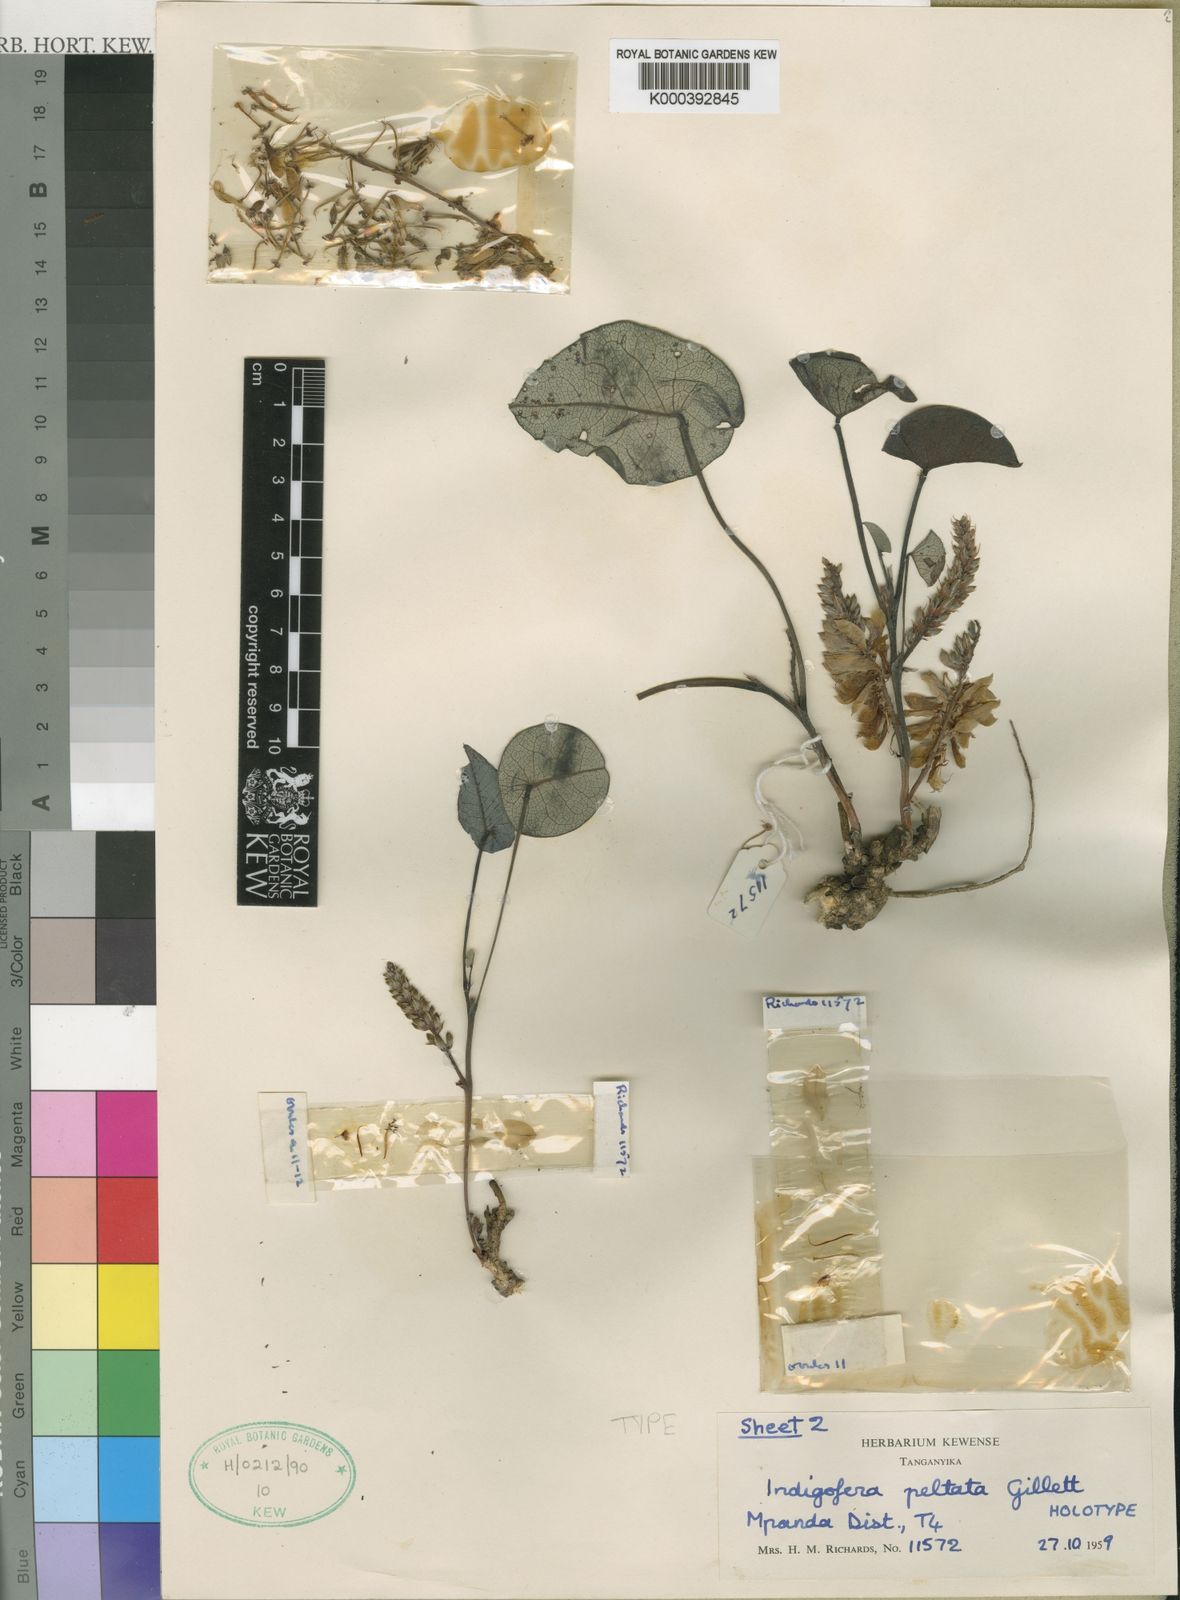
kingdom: Plantae
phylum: Tracheophyta
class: Magnoliopsida
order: Fabales
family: Fabaceae
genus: Indigofera
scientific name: Indigofera peltata
